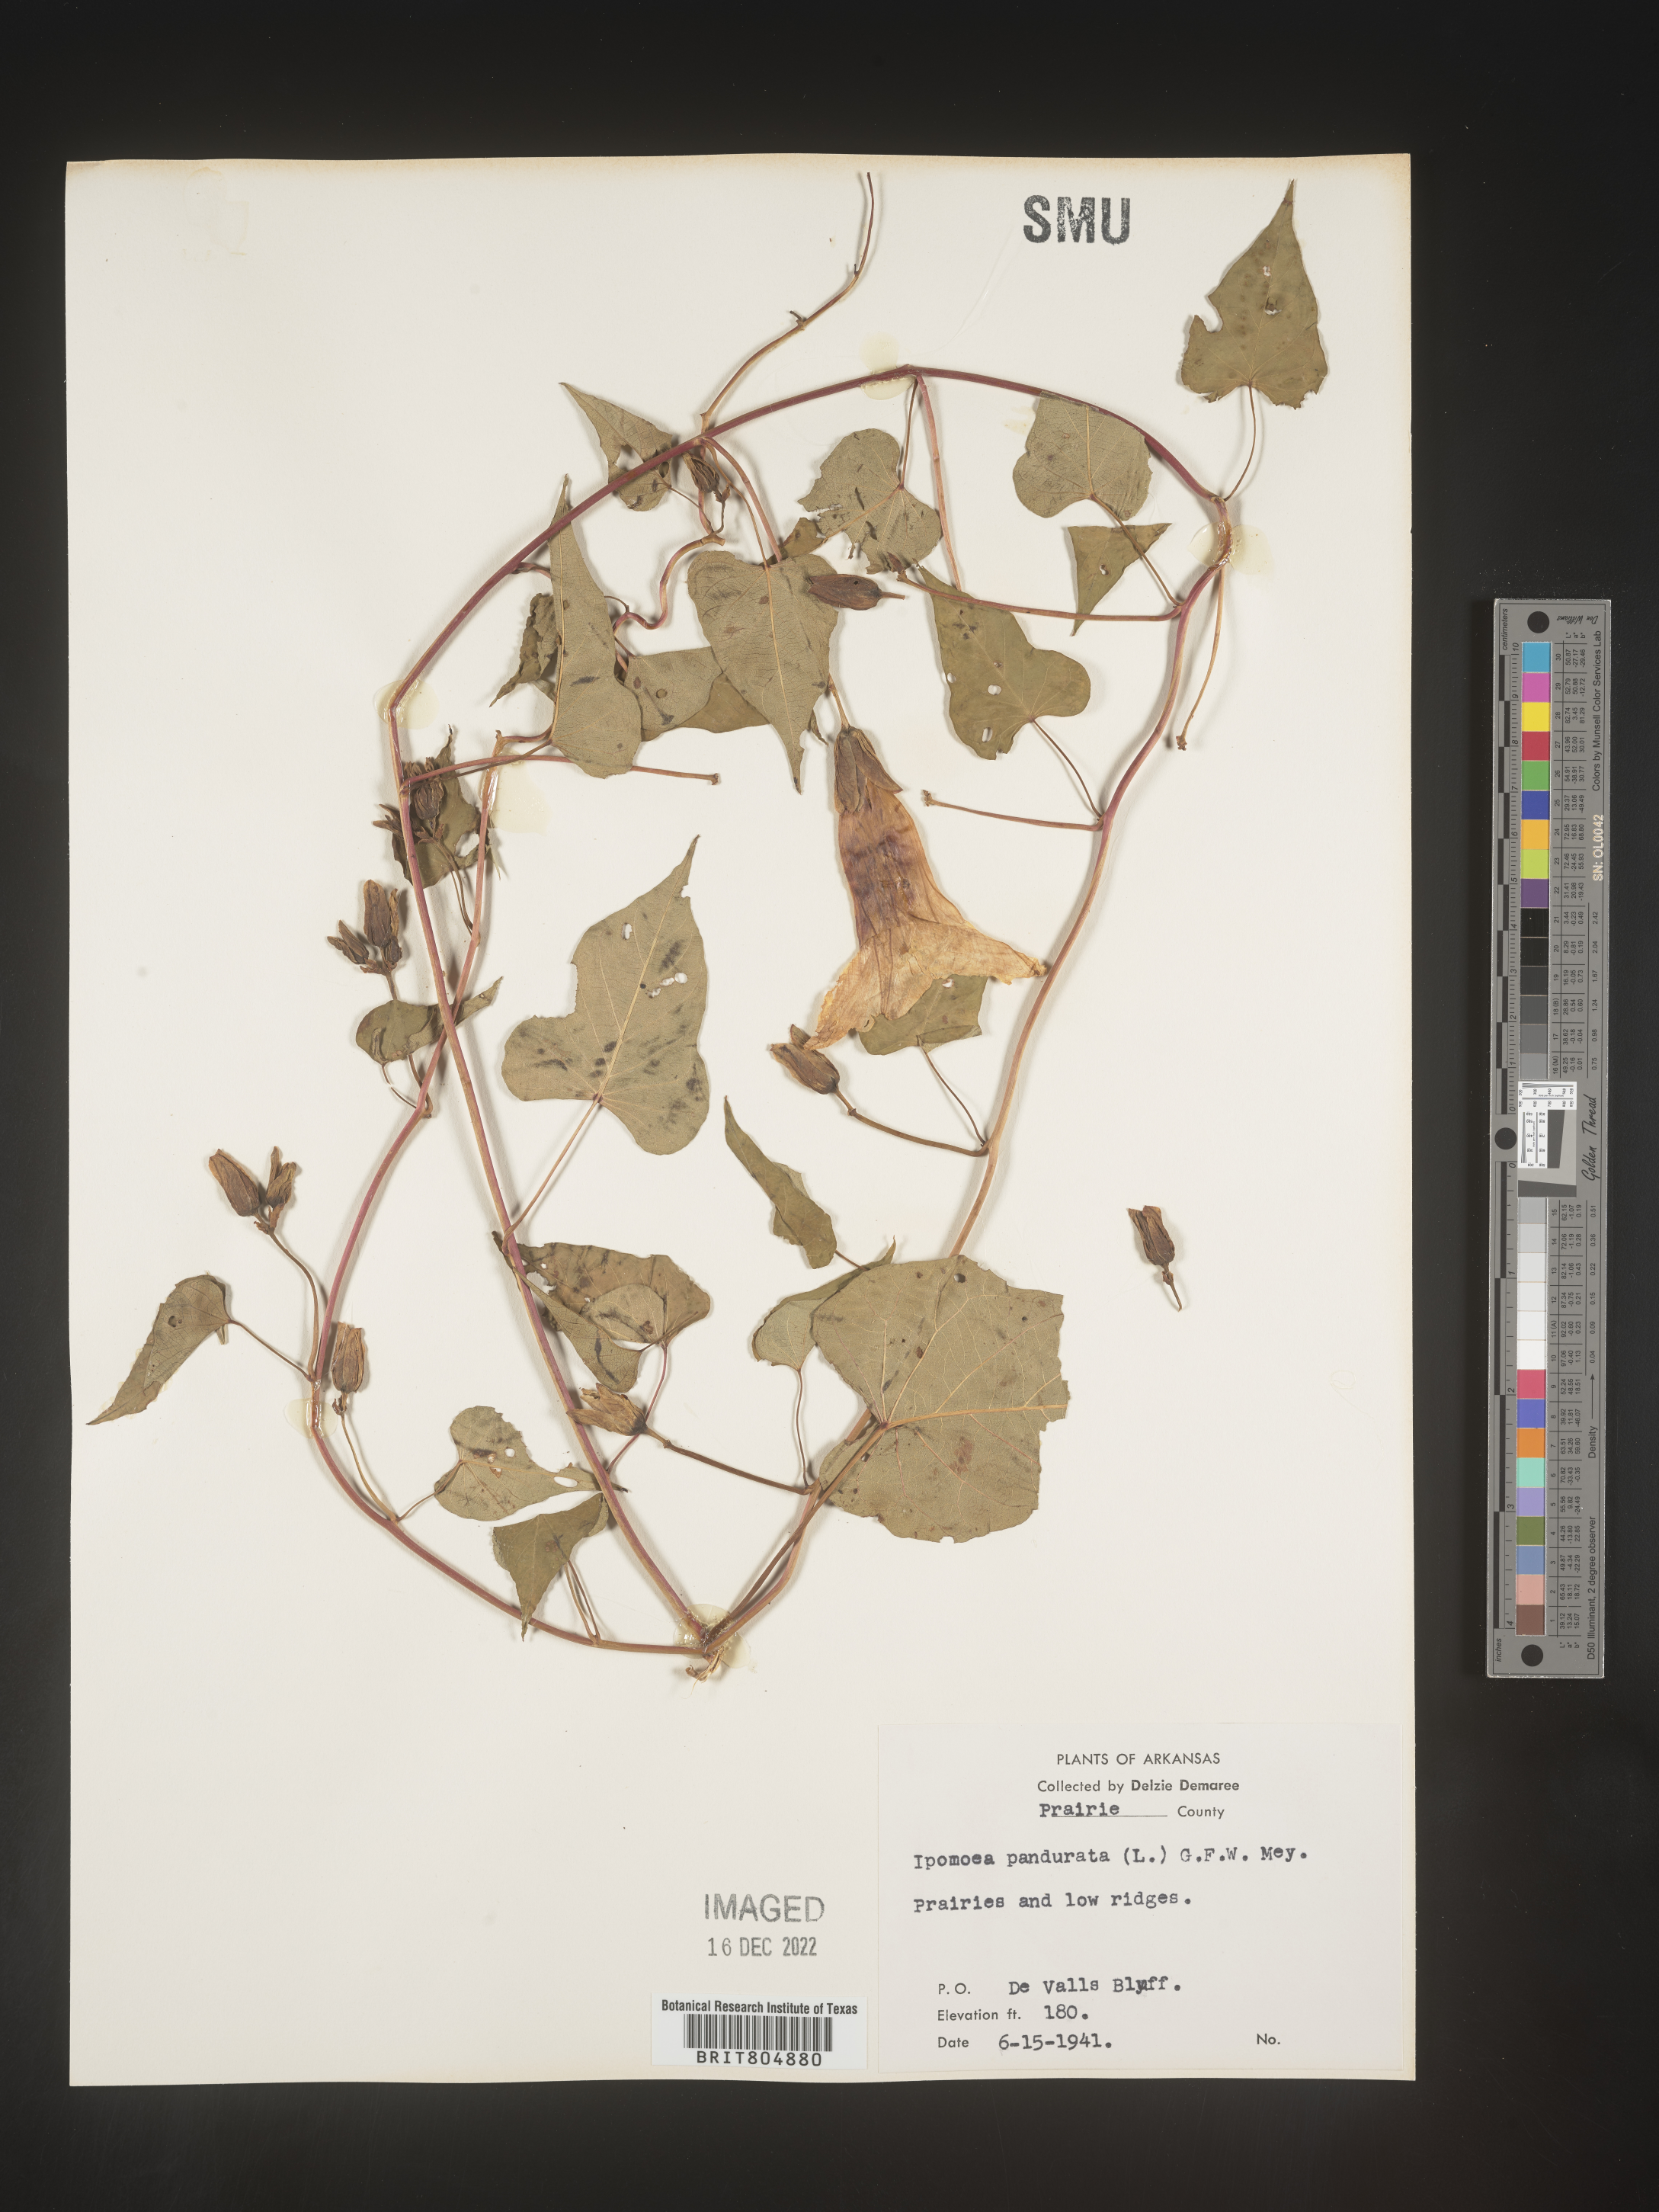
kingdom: Plantae
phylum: Tracheophyta
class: Magnoliopsida
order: Solanales
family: Convolvulaceae
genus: Ipomoea
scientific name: Ipomoea pandurata
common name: Man-of-the-earth
